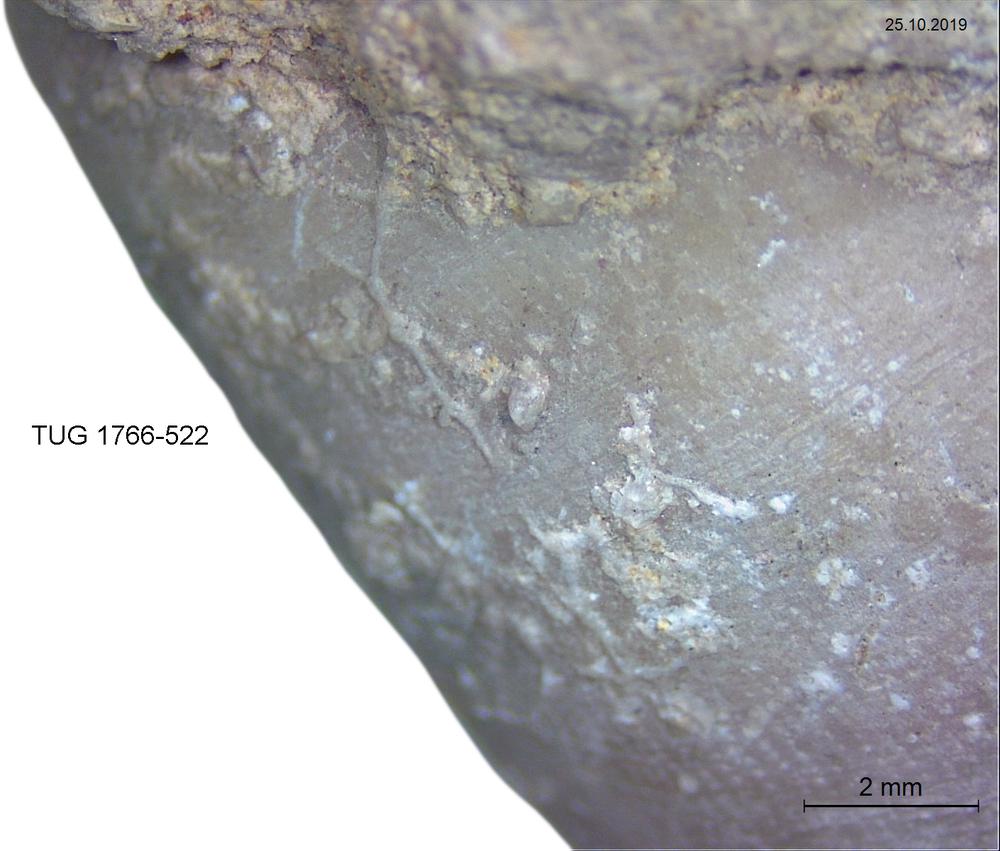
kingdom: Animalia
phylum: Bryozoa
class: Stenolaemata
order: Cyclostomatida
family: Corynotrypidae
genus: Corynotrypa
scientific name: Corynotrypa
